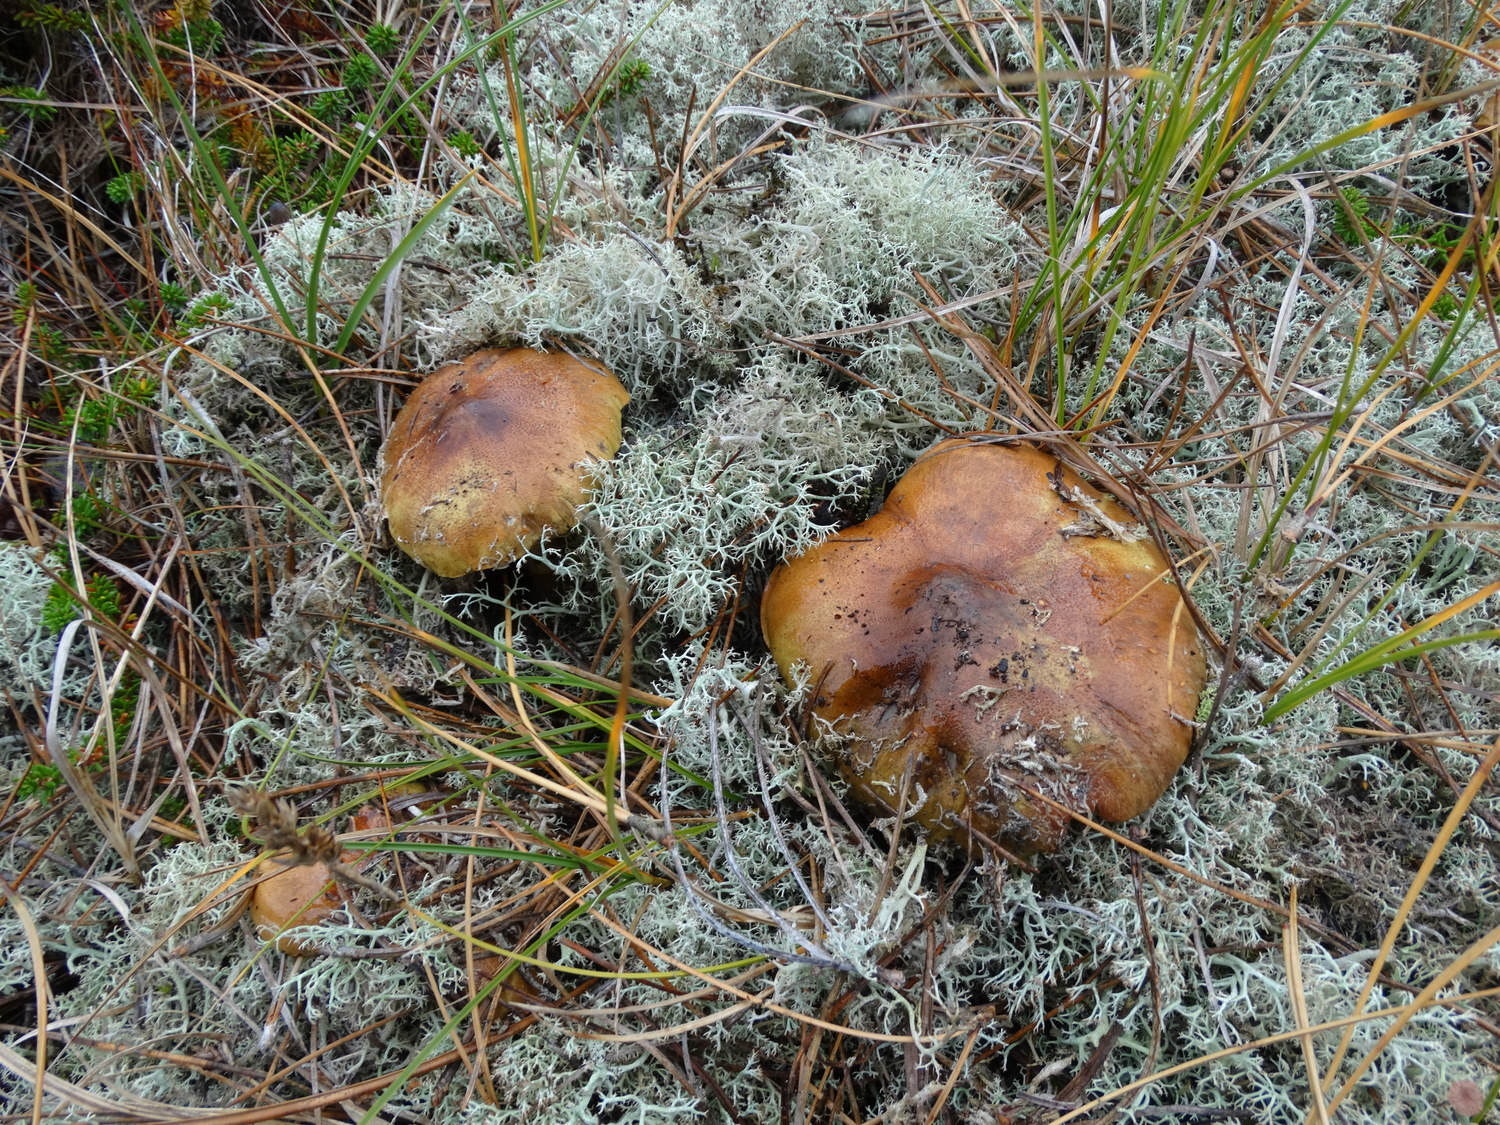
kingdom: Fungi
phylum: Basidiomycota
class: Agaricomycetes
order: Agaricales
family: Tricholomataceae
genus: Tricholoma
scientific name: Tricholoma equestre
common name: ægte ridderhat
